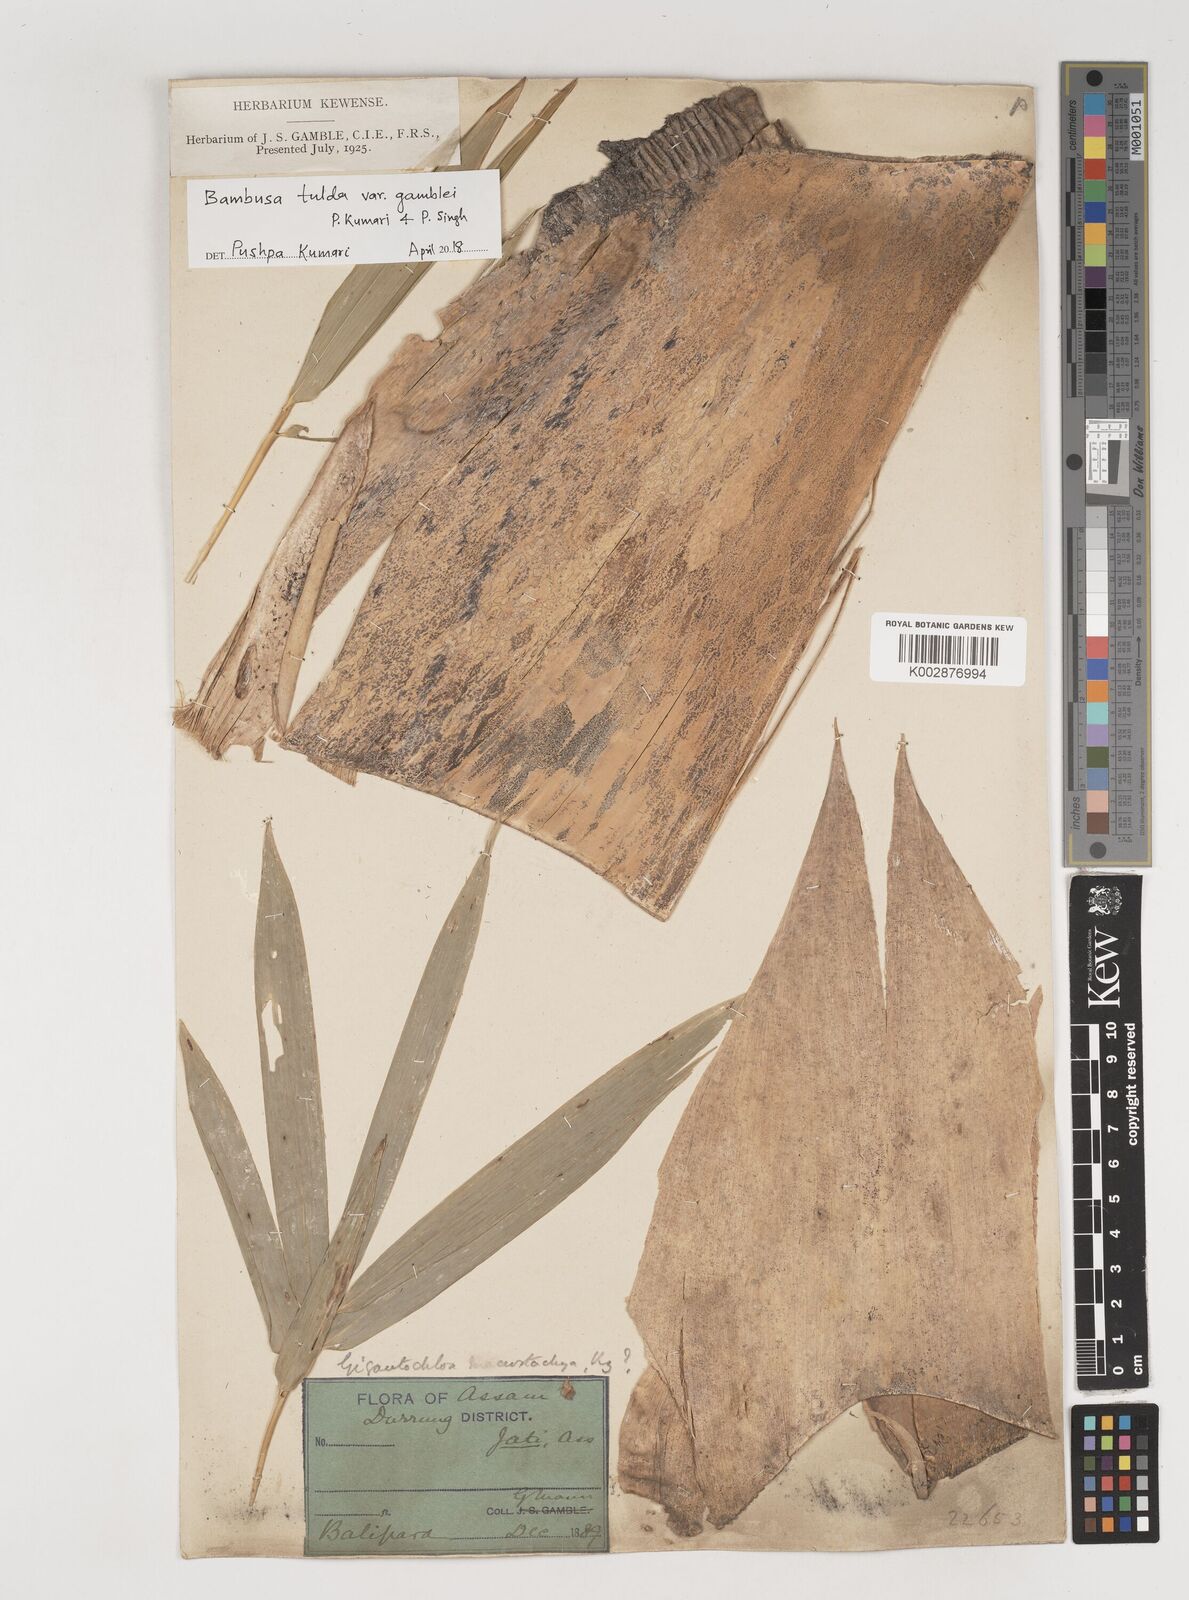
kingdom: Plantae
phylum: Tracheophyta
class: Liliopsida
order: Poales
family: Poaceae
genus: Bambusa
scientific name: Bambusa tulda
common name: Bengal bamboo
